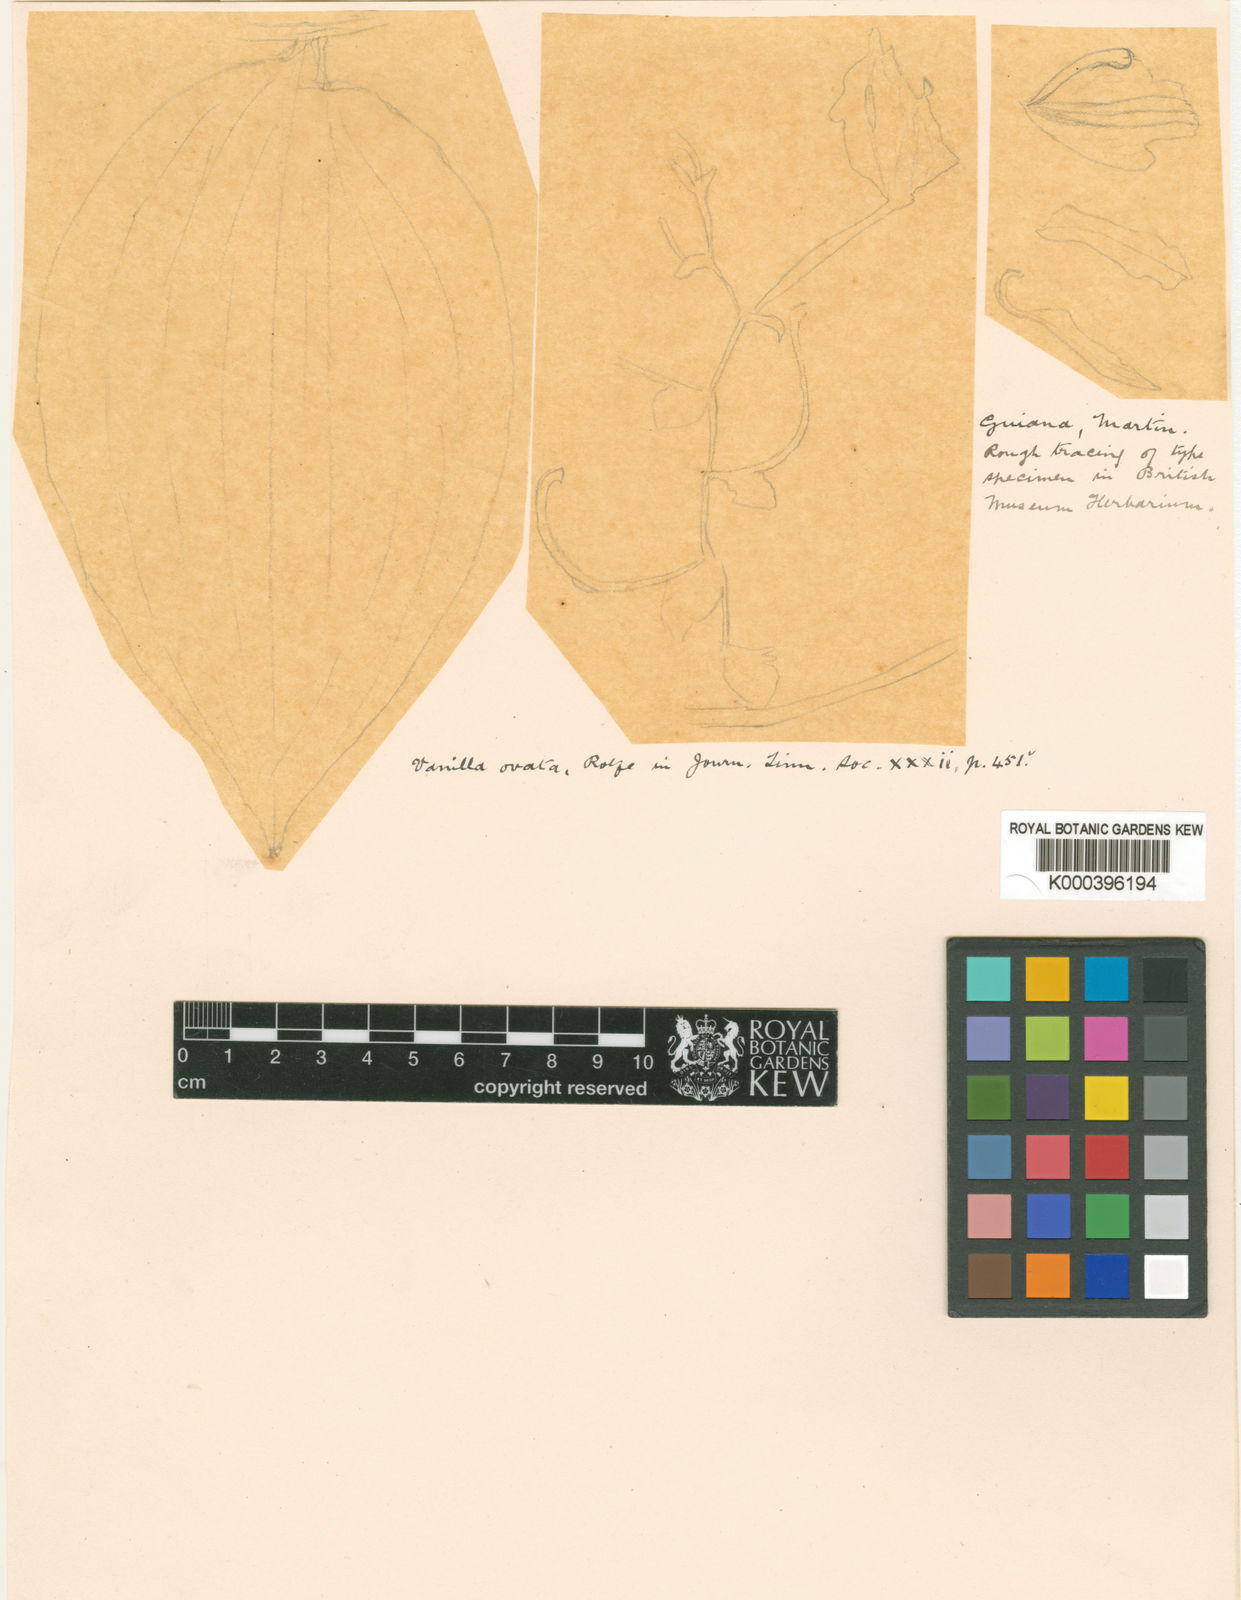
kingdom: Plantae
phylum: Tracheophyta
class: Liliopsida
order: Asparagales
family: Orchidaceae
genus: Vanilla
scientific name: Vanilla mexicana
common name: Mexican vanilla
